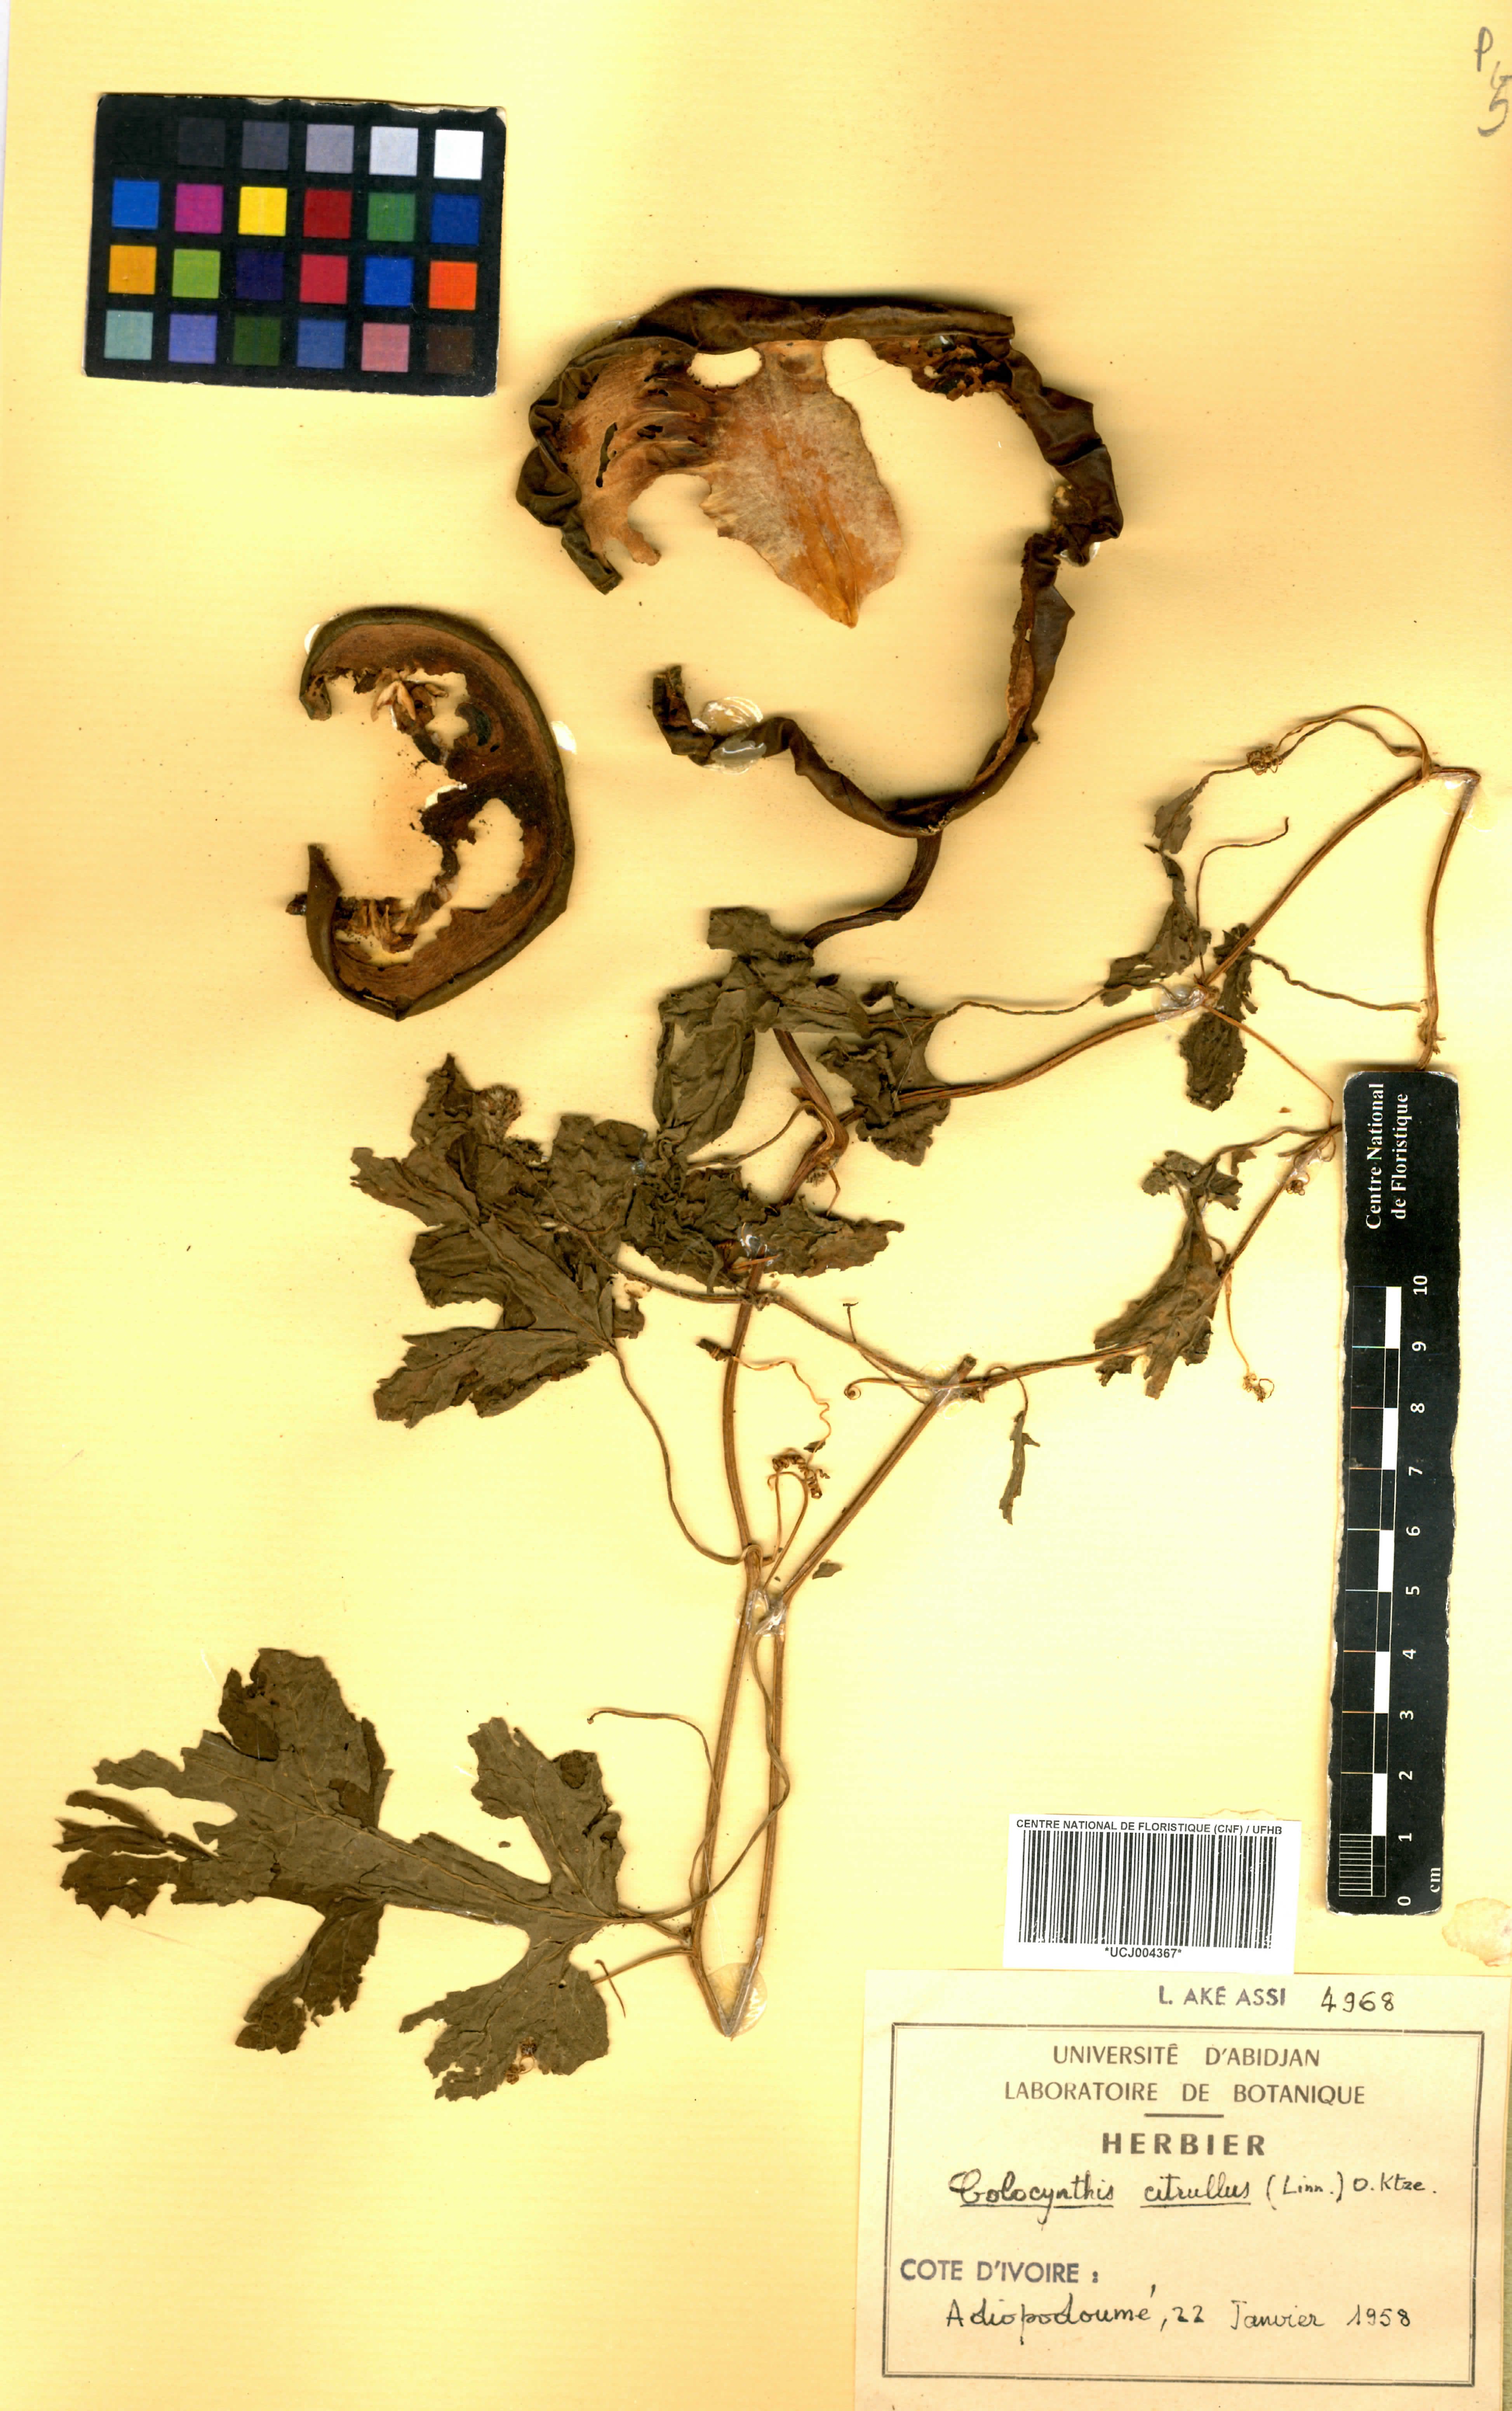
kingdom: Plantae
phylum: Tracheophyta
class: Magnoliopsida
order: Cucurbitales
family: Cucurbitaceae
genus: Citrullus
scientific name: Citrullus lanatus
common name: Watermelon
